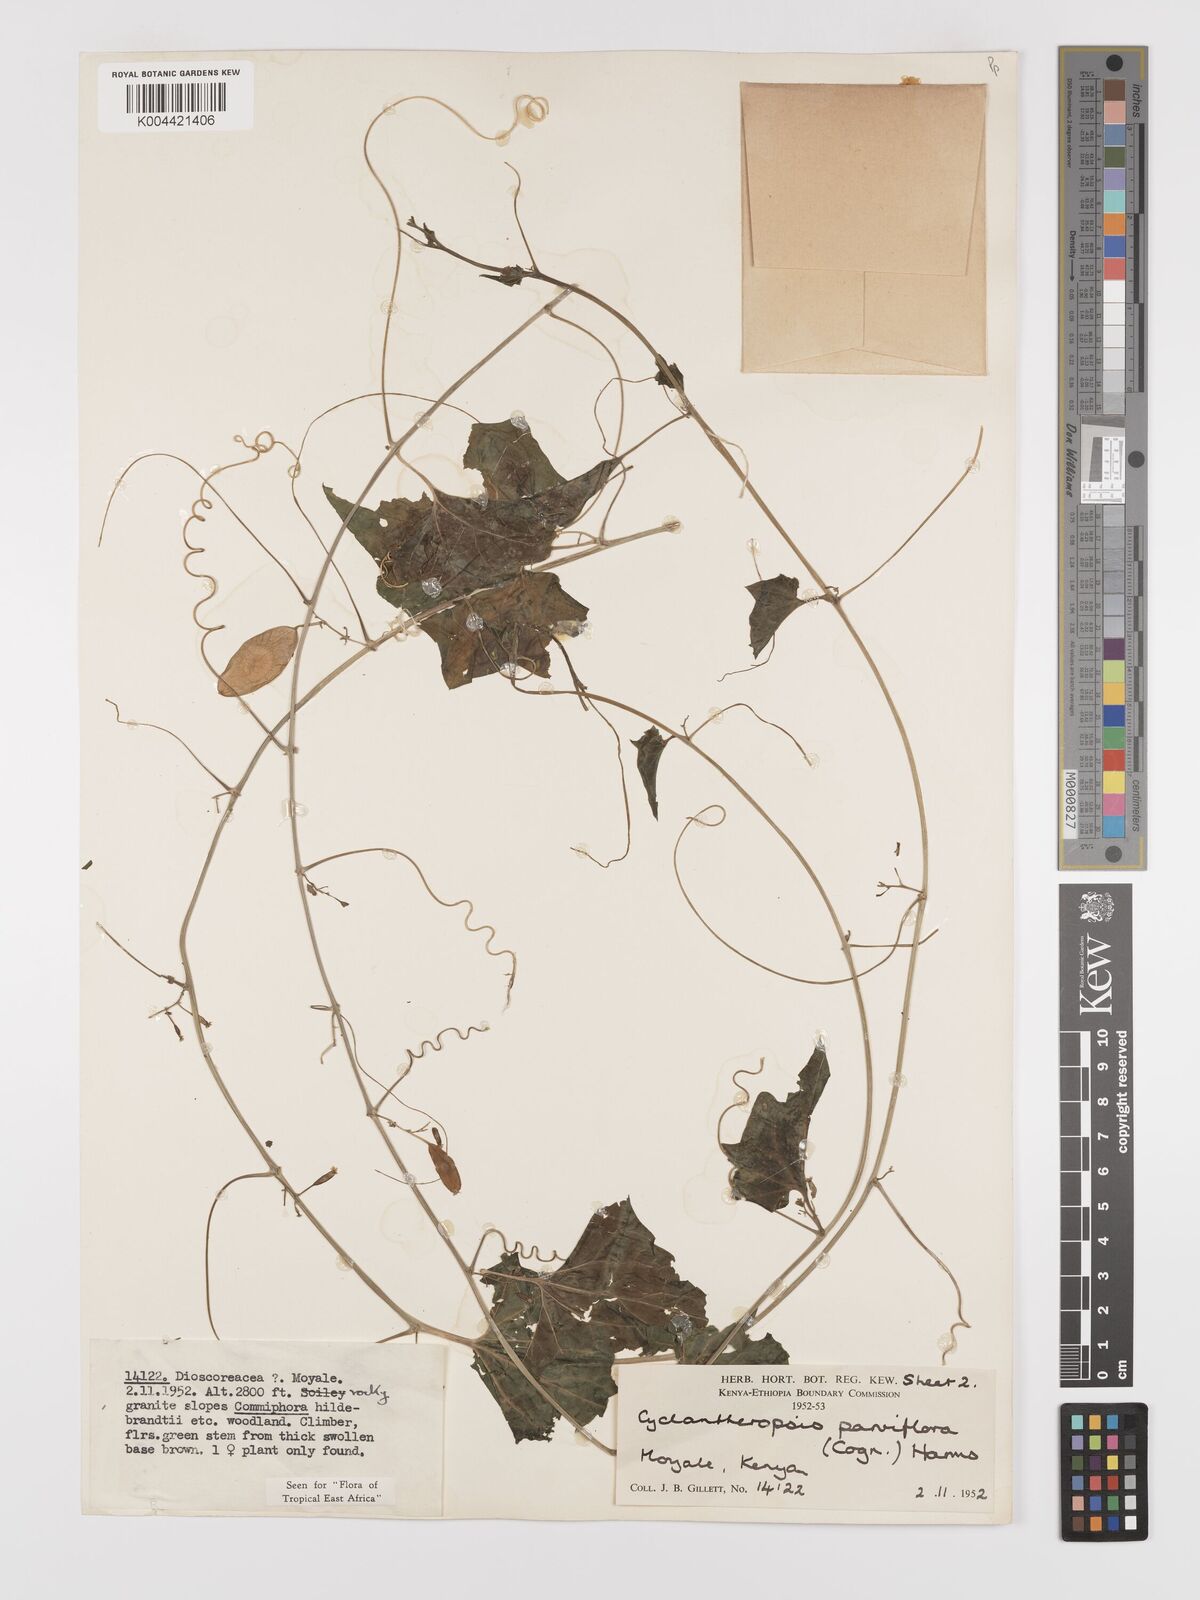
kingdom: Plantae
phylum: Tracheophyta
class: Magnoliopsida
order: Cucurbitales
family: Cucurbitaceae
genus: Cyclantheropsis
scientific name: Cyclantheropsis parviflora
